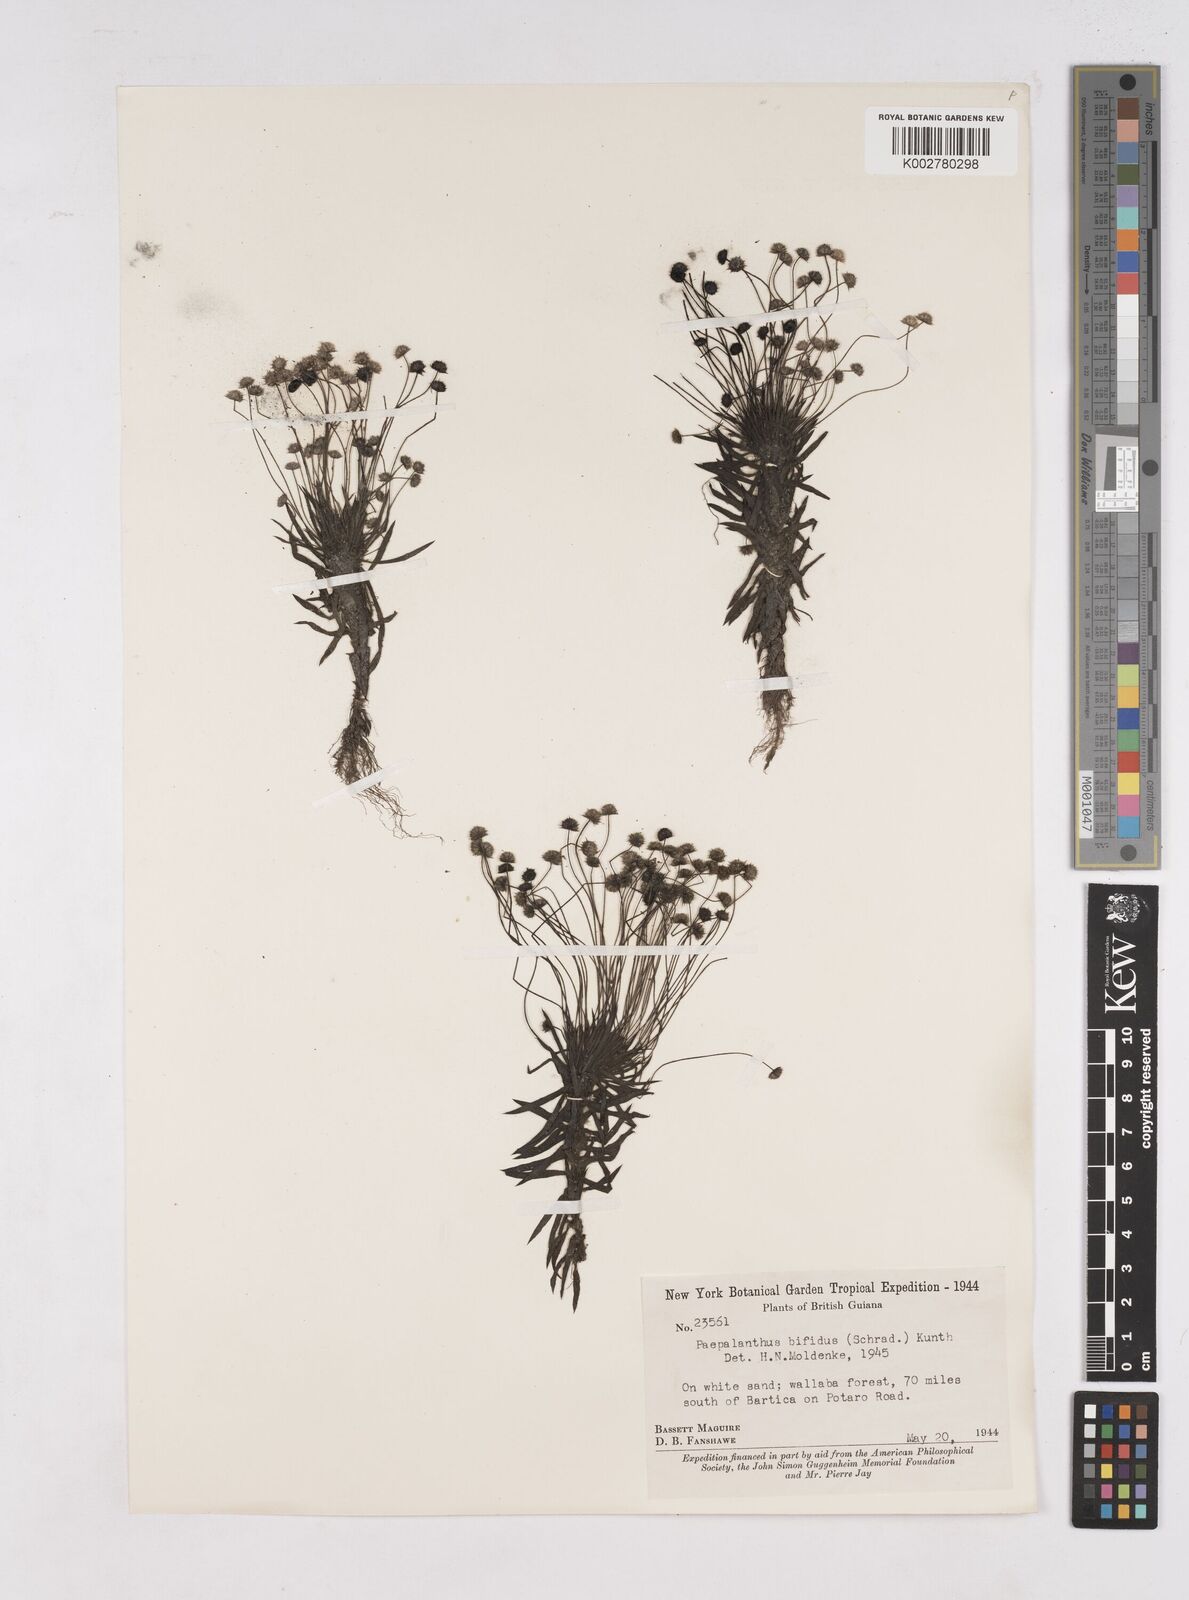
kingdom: Plantae
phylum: Tracheophyta
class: Liliopsida
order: Poales
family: Eriocaulaceae
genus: Paepalanthus
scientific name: Paepalanthus bifidus
